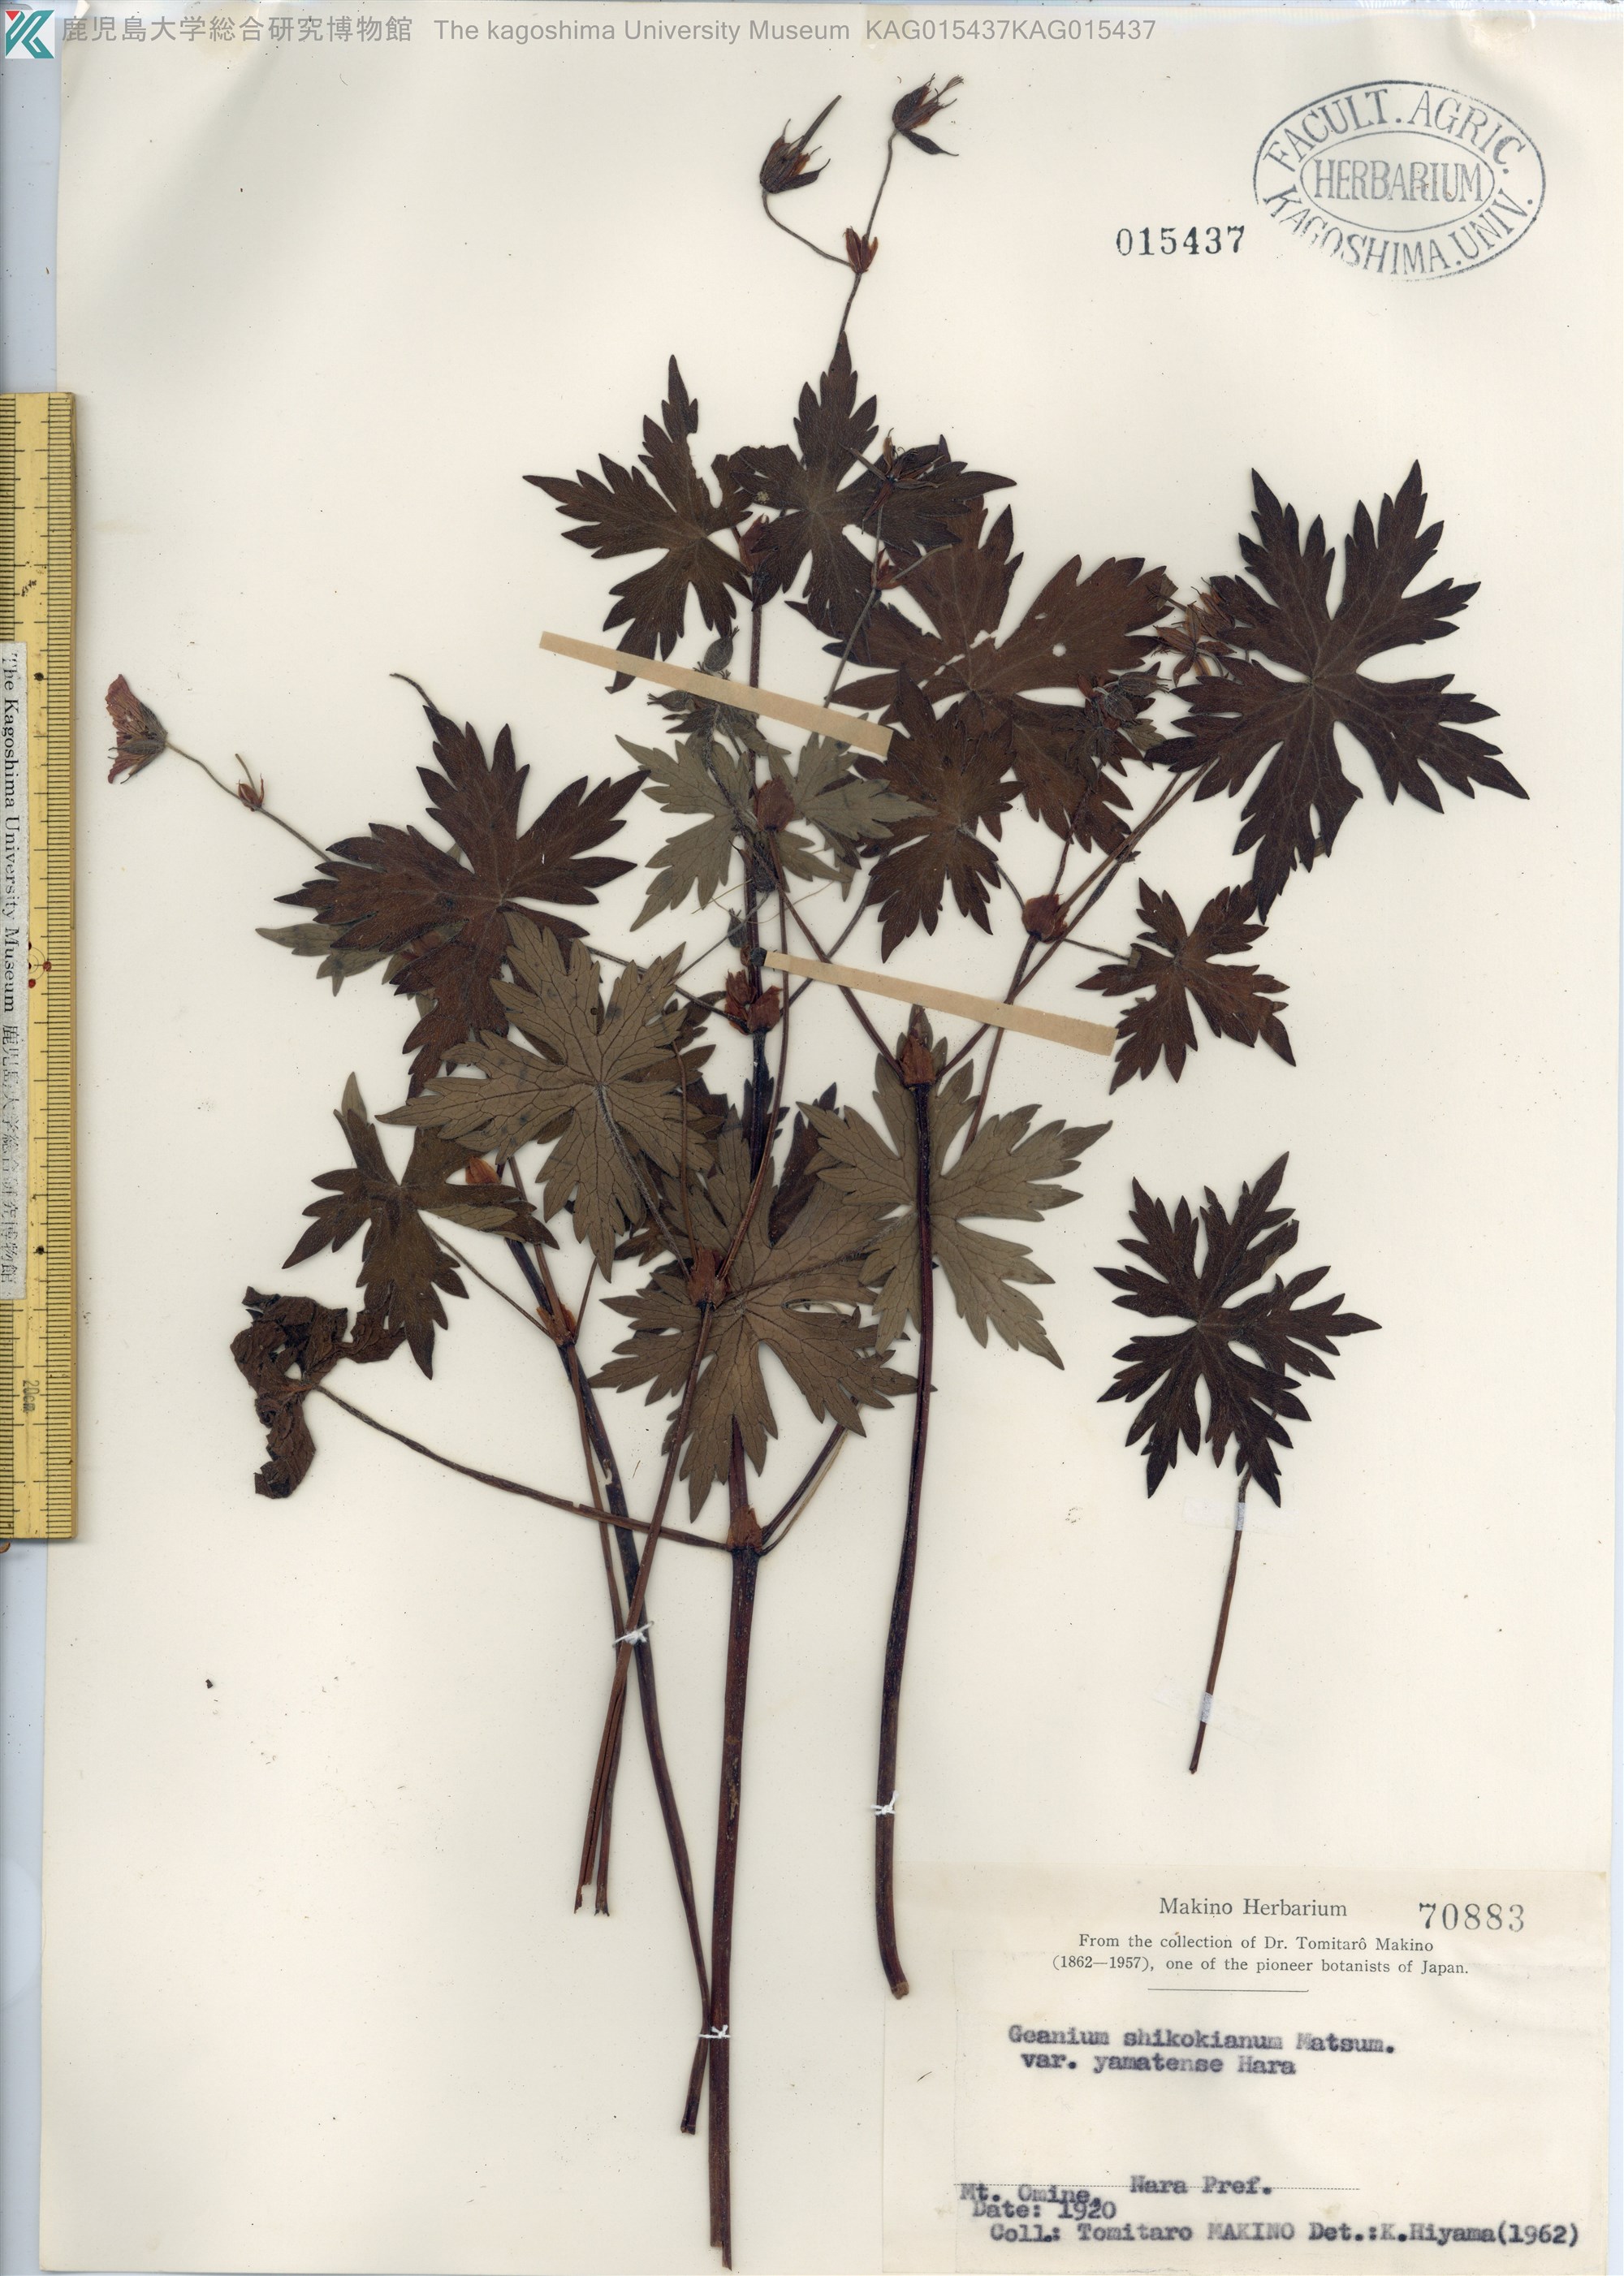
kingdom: Plantae
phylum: Tracheophyta
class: Magnoliopsida
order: Geraniales
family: Geraniaceae
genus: Geranium
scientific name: Geranium shikokianum
